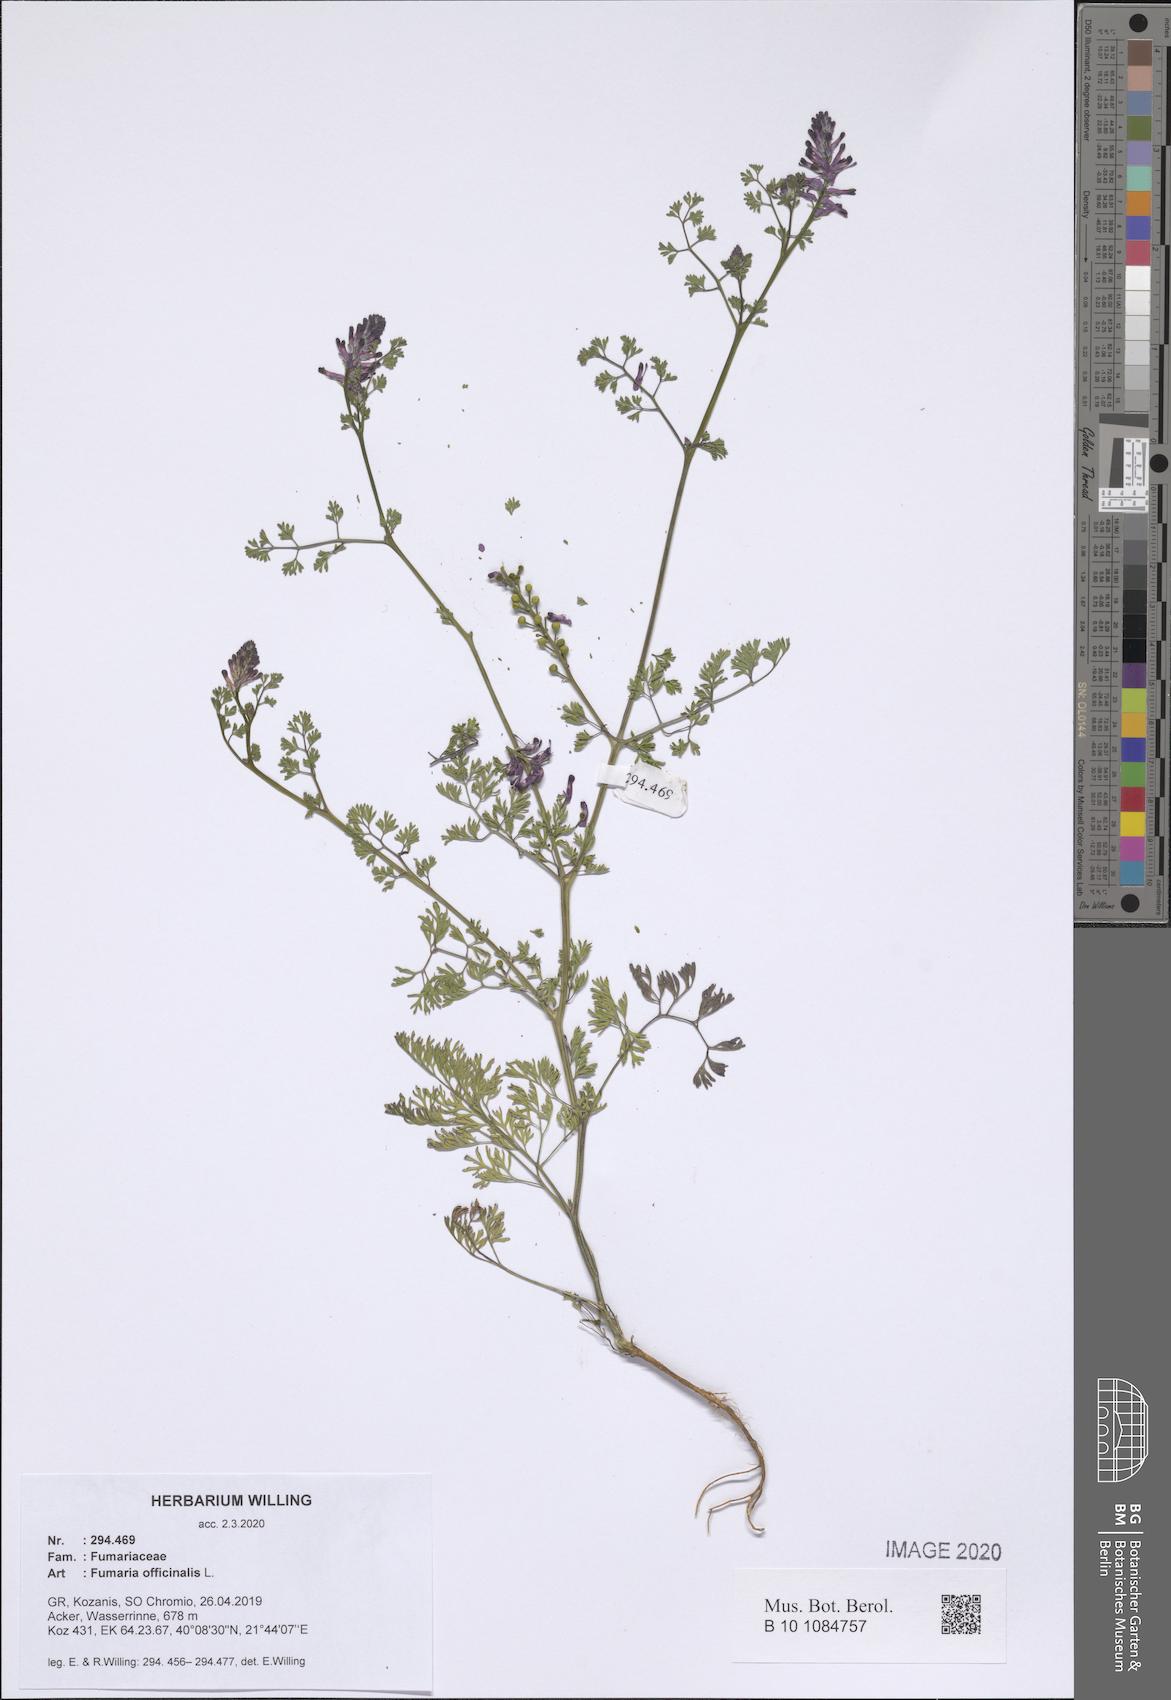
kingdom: Plantae
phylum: Tracheophyta
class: Magnoliopsida
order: Ranunculales
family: Papaveraceae
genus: Fumaria
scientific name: Fumaria officinalis
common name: Common fumitory
